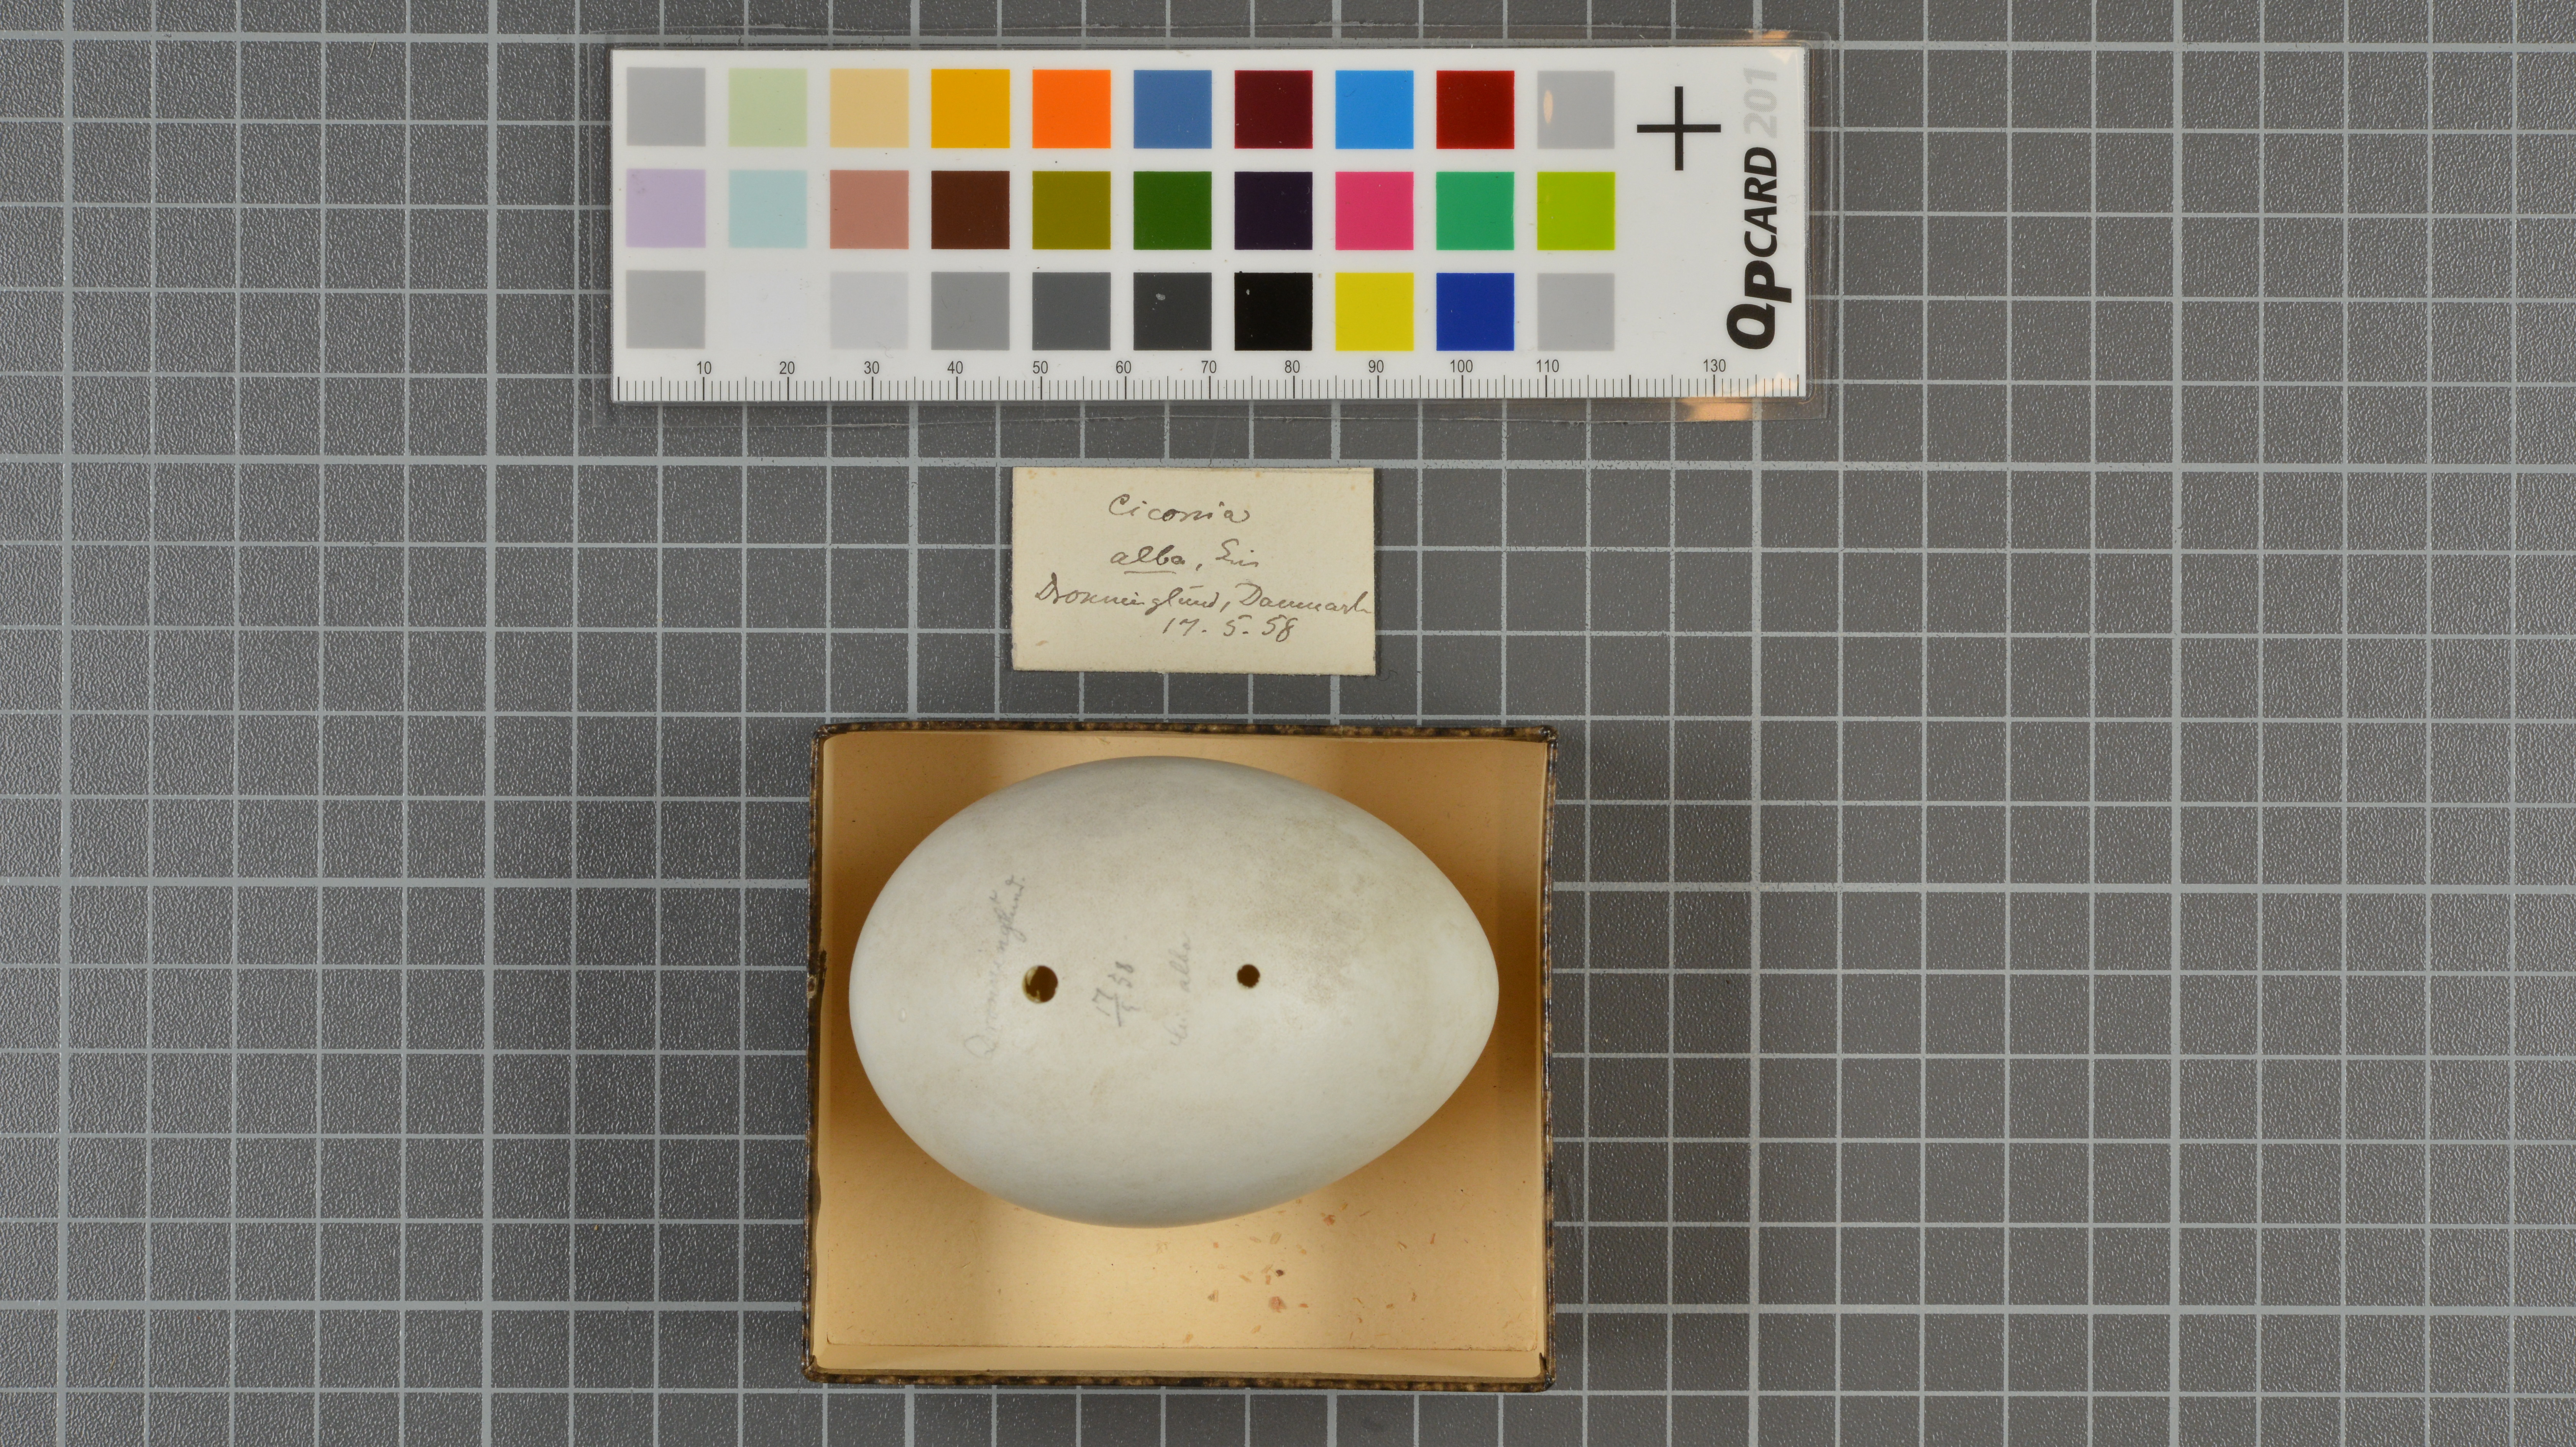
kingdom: Animalia
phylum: Chordata
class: Aves
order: Ciconiiformes
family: Ciconiidae
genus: Ciconia
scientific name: Ciconia ciconia
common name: White stork
